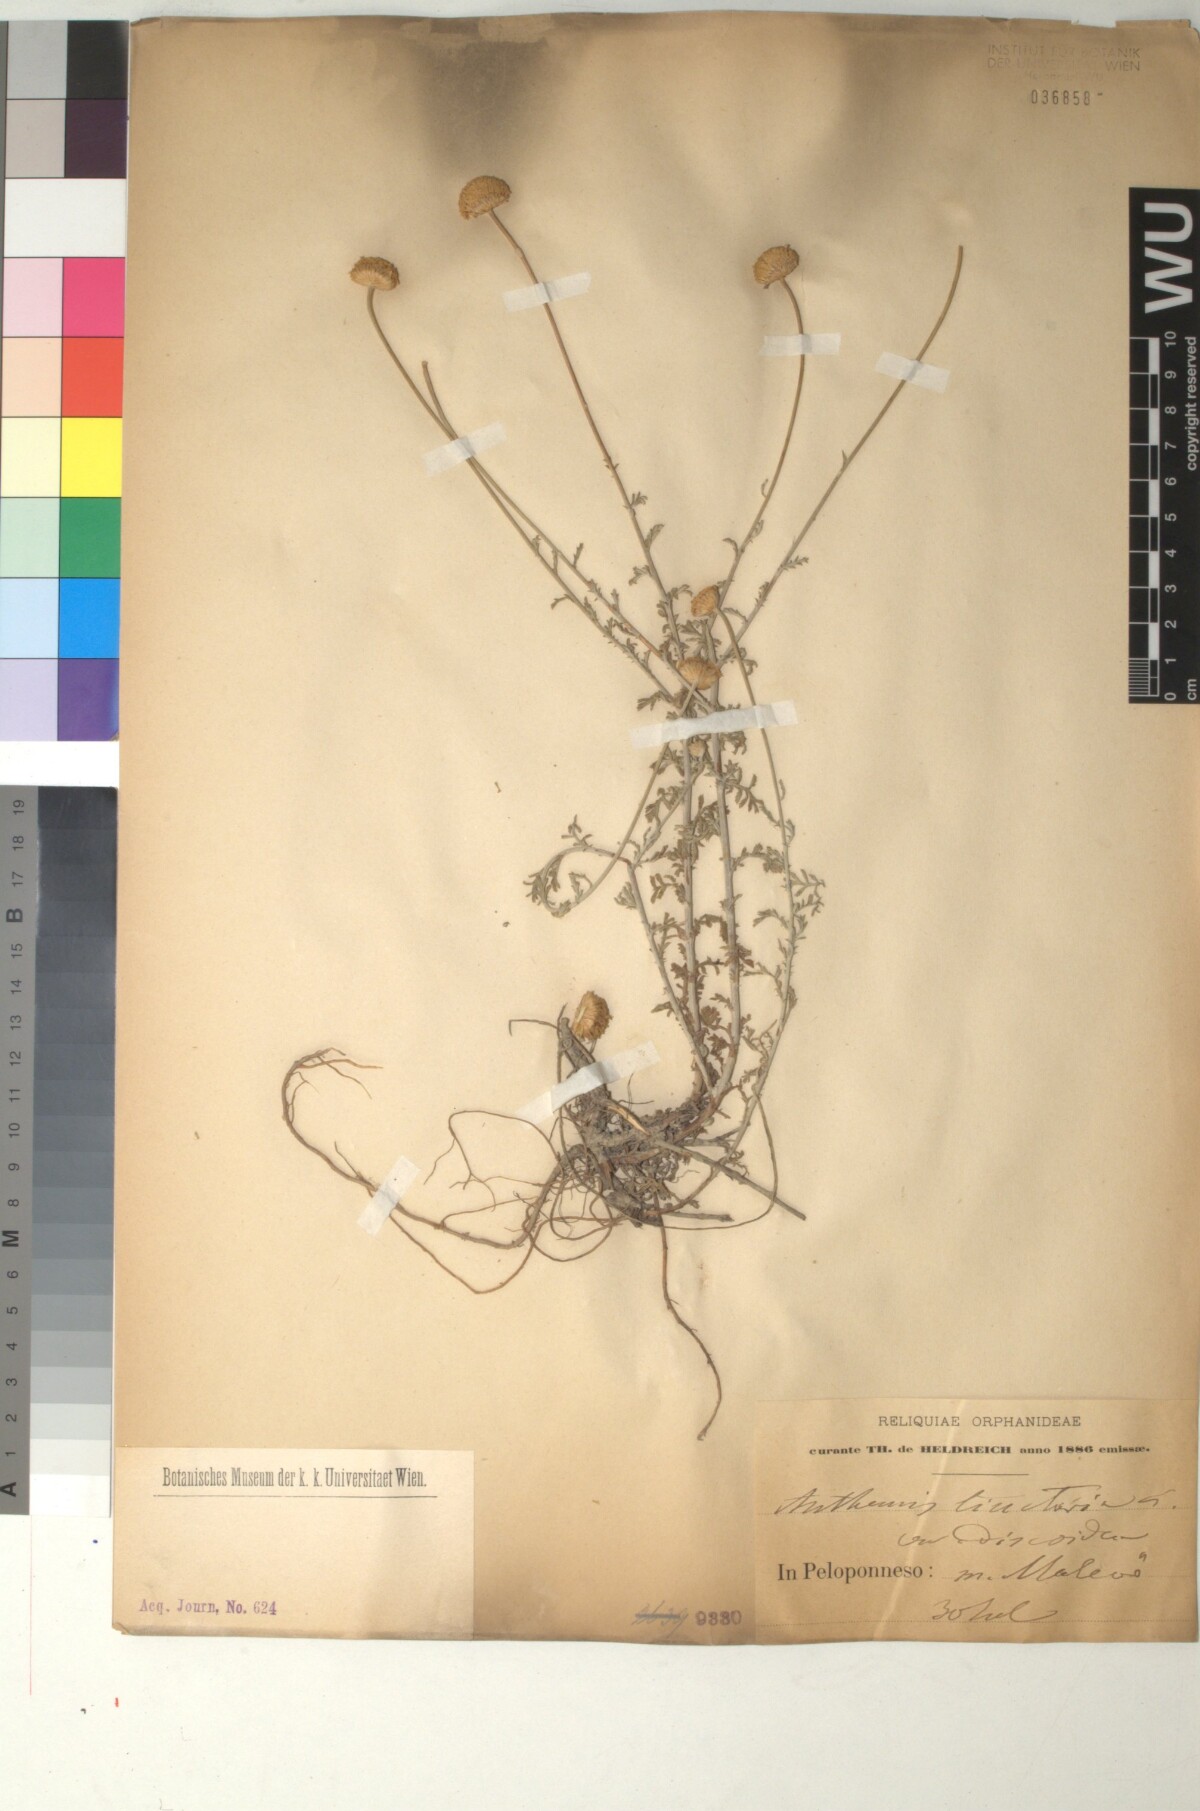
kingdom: Plantae
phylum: Tracheophyta
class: Magnoliopsida
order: Asterales
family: Asteraceae
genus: Cota
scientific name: Cota tinctoria
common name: Golden chamomile
